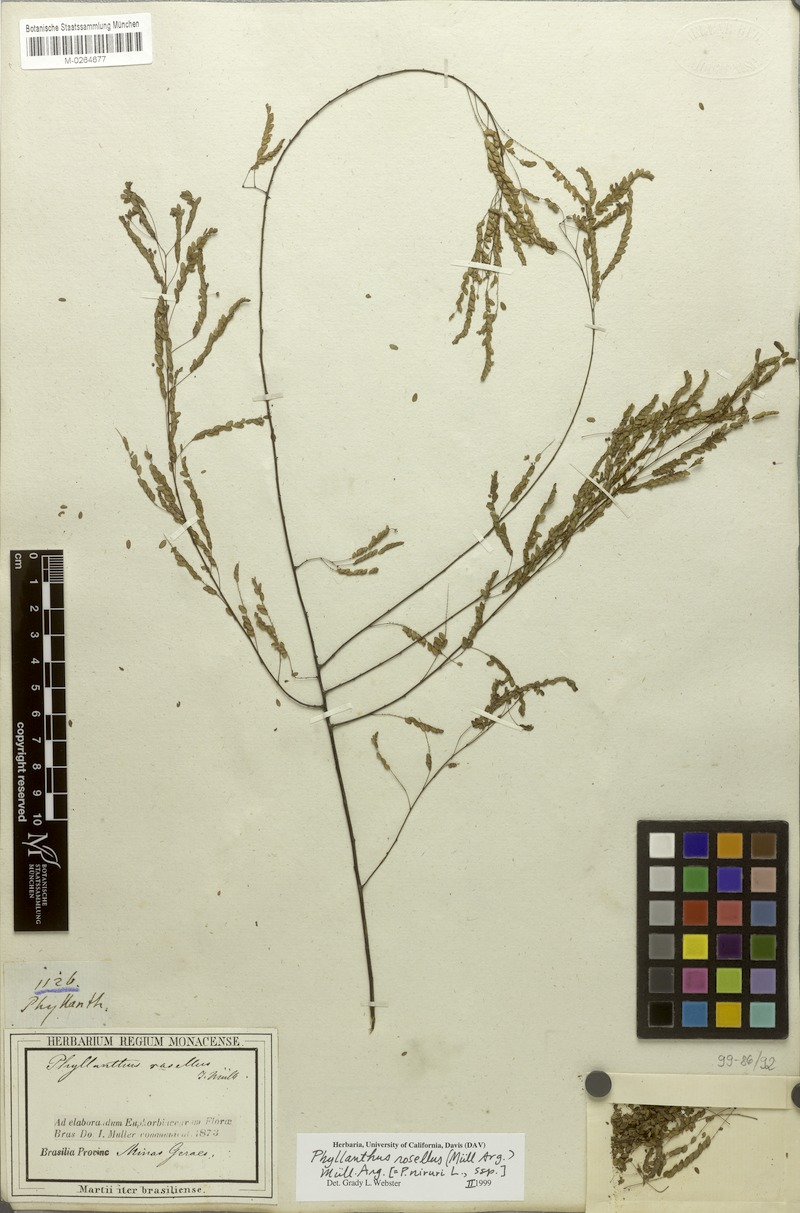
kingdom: Plantae
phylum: Tracheophyta
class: Magnoliopsida
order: Malpighiales
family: Phyllanthaceae
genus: Phyllanthus
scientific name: Phyllanthus niruri
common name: Niruri
